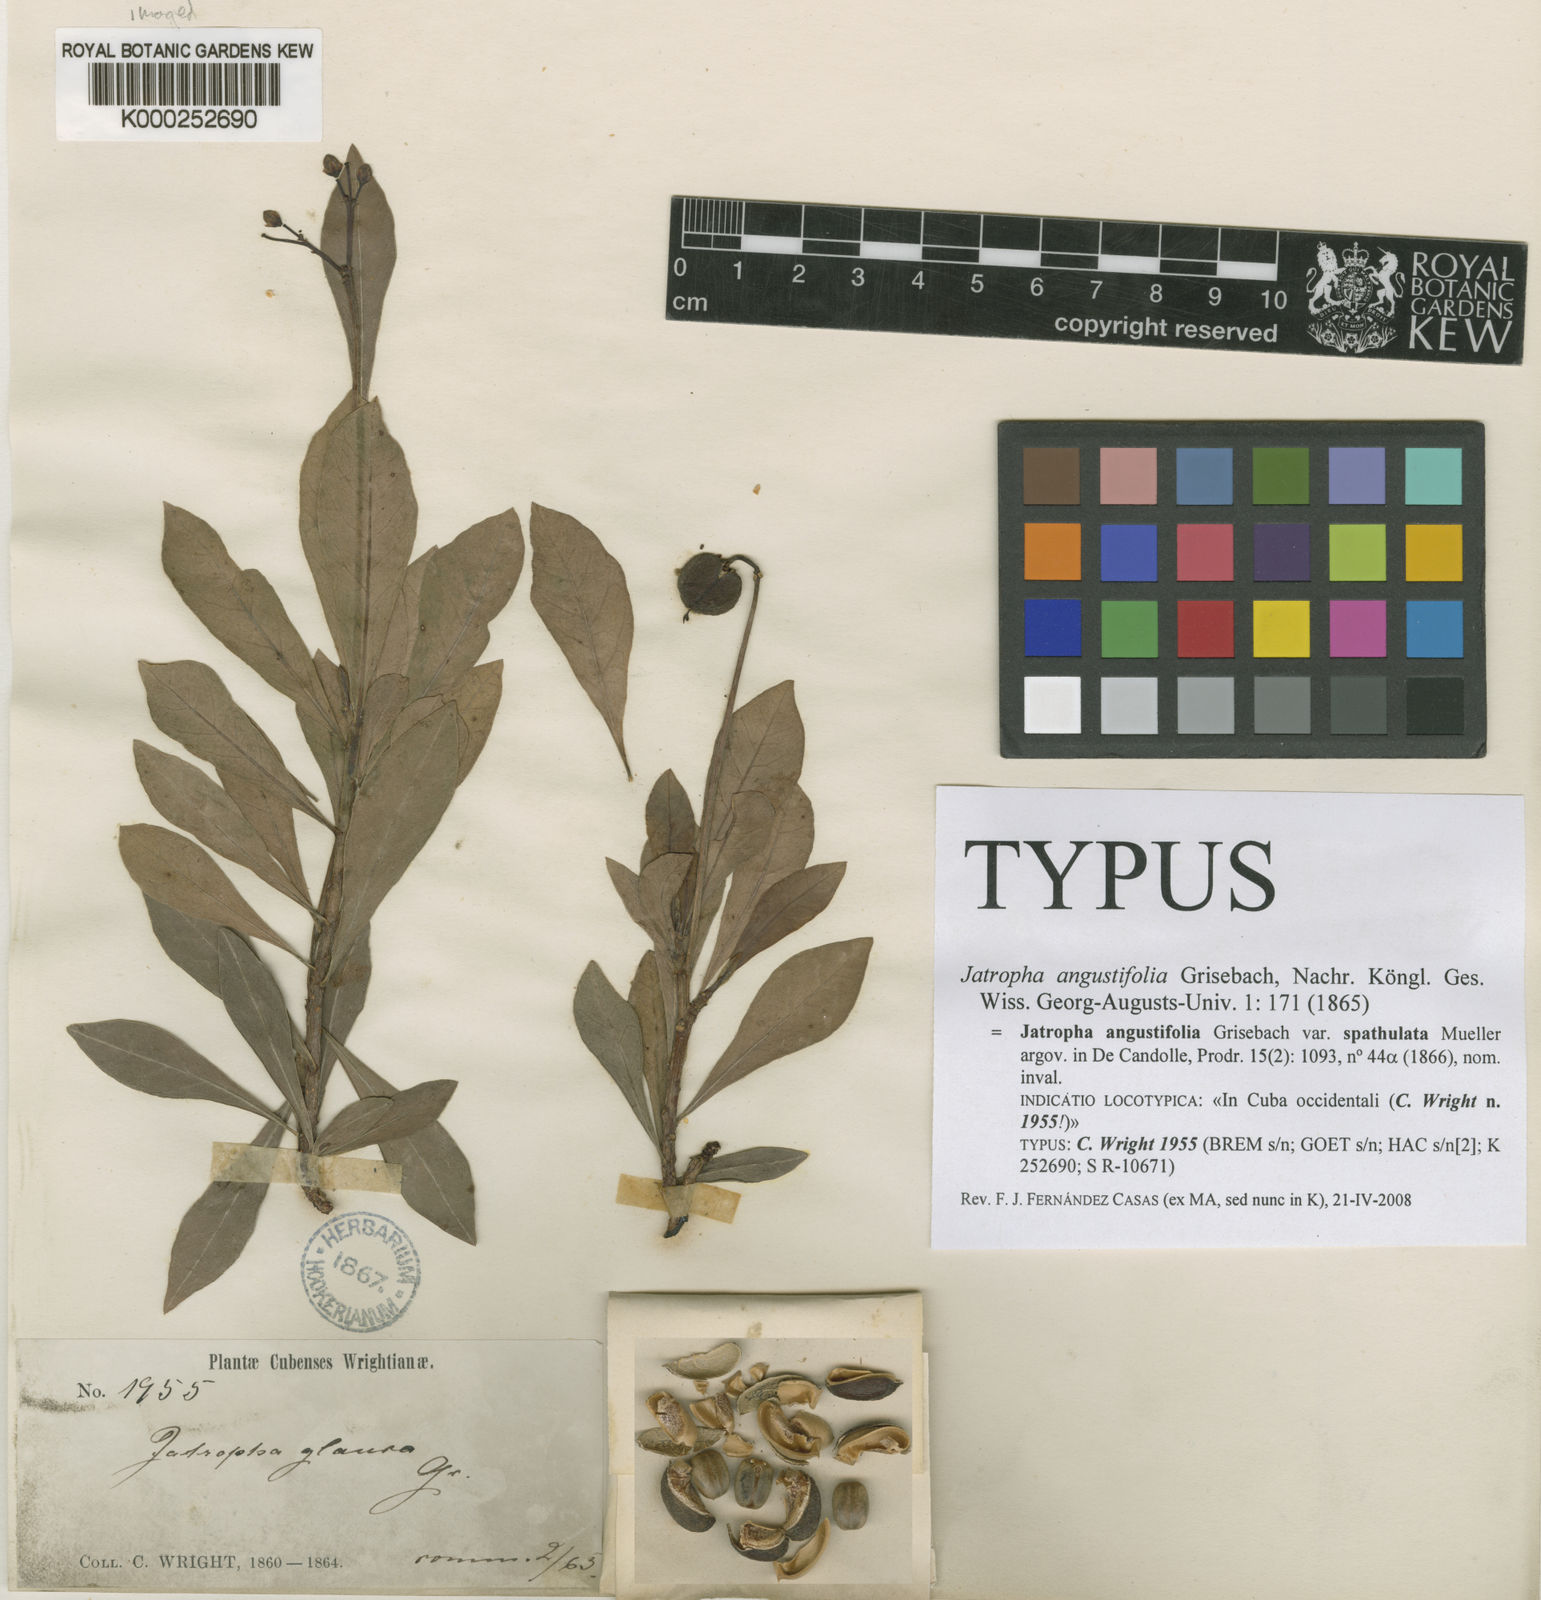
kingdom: Plantae
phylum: Tracheophyta
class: Magnoliopsida
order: Malpighiales
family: Euphorbiaceae
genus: Jatropha
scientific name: Jatropha angustifolia
